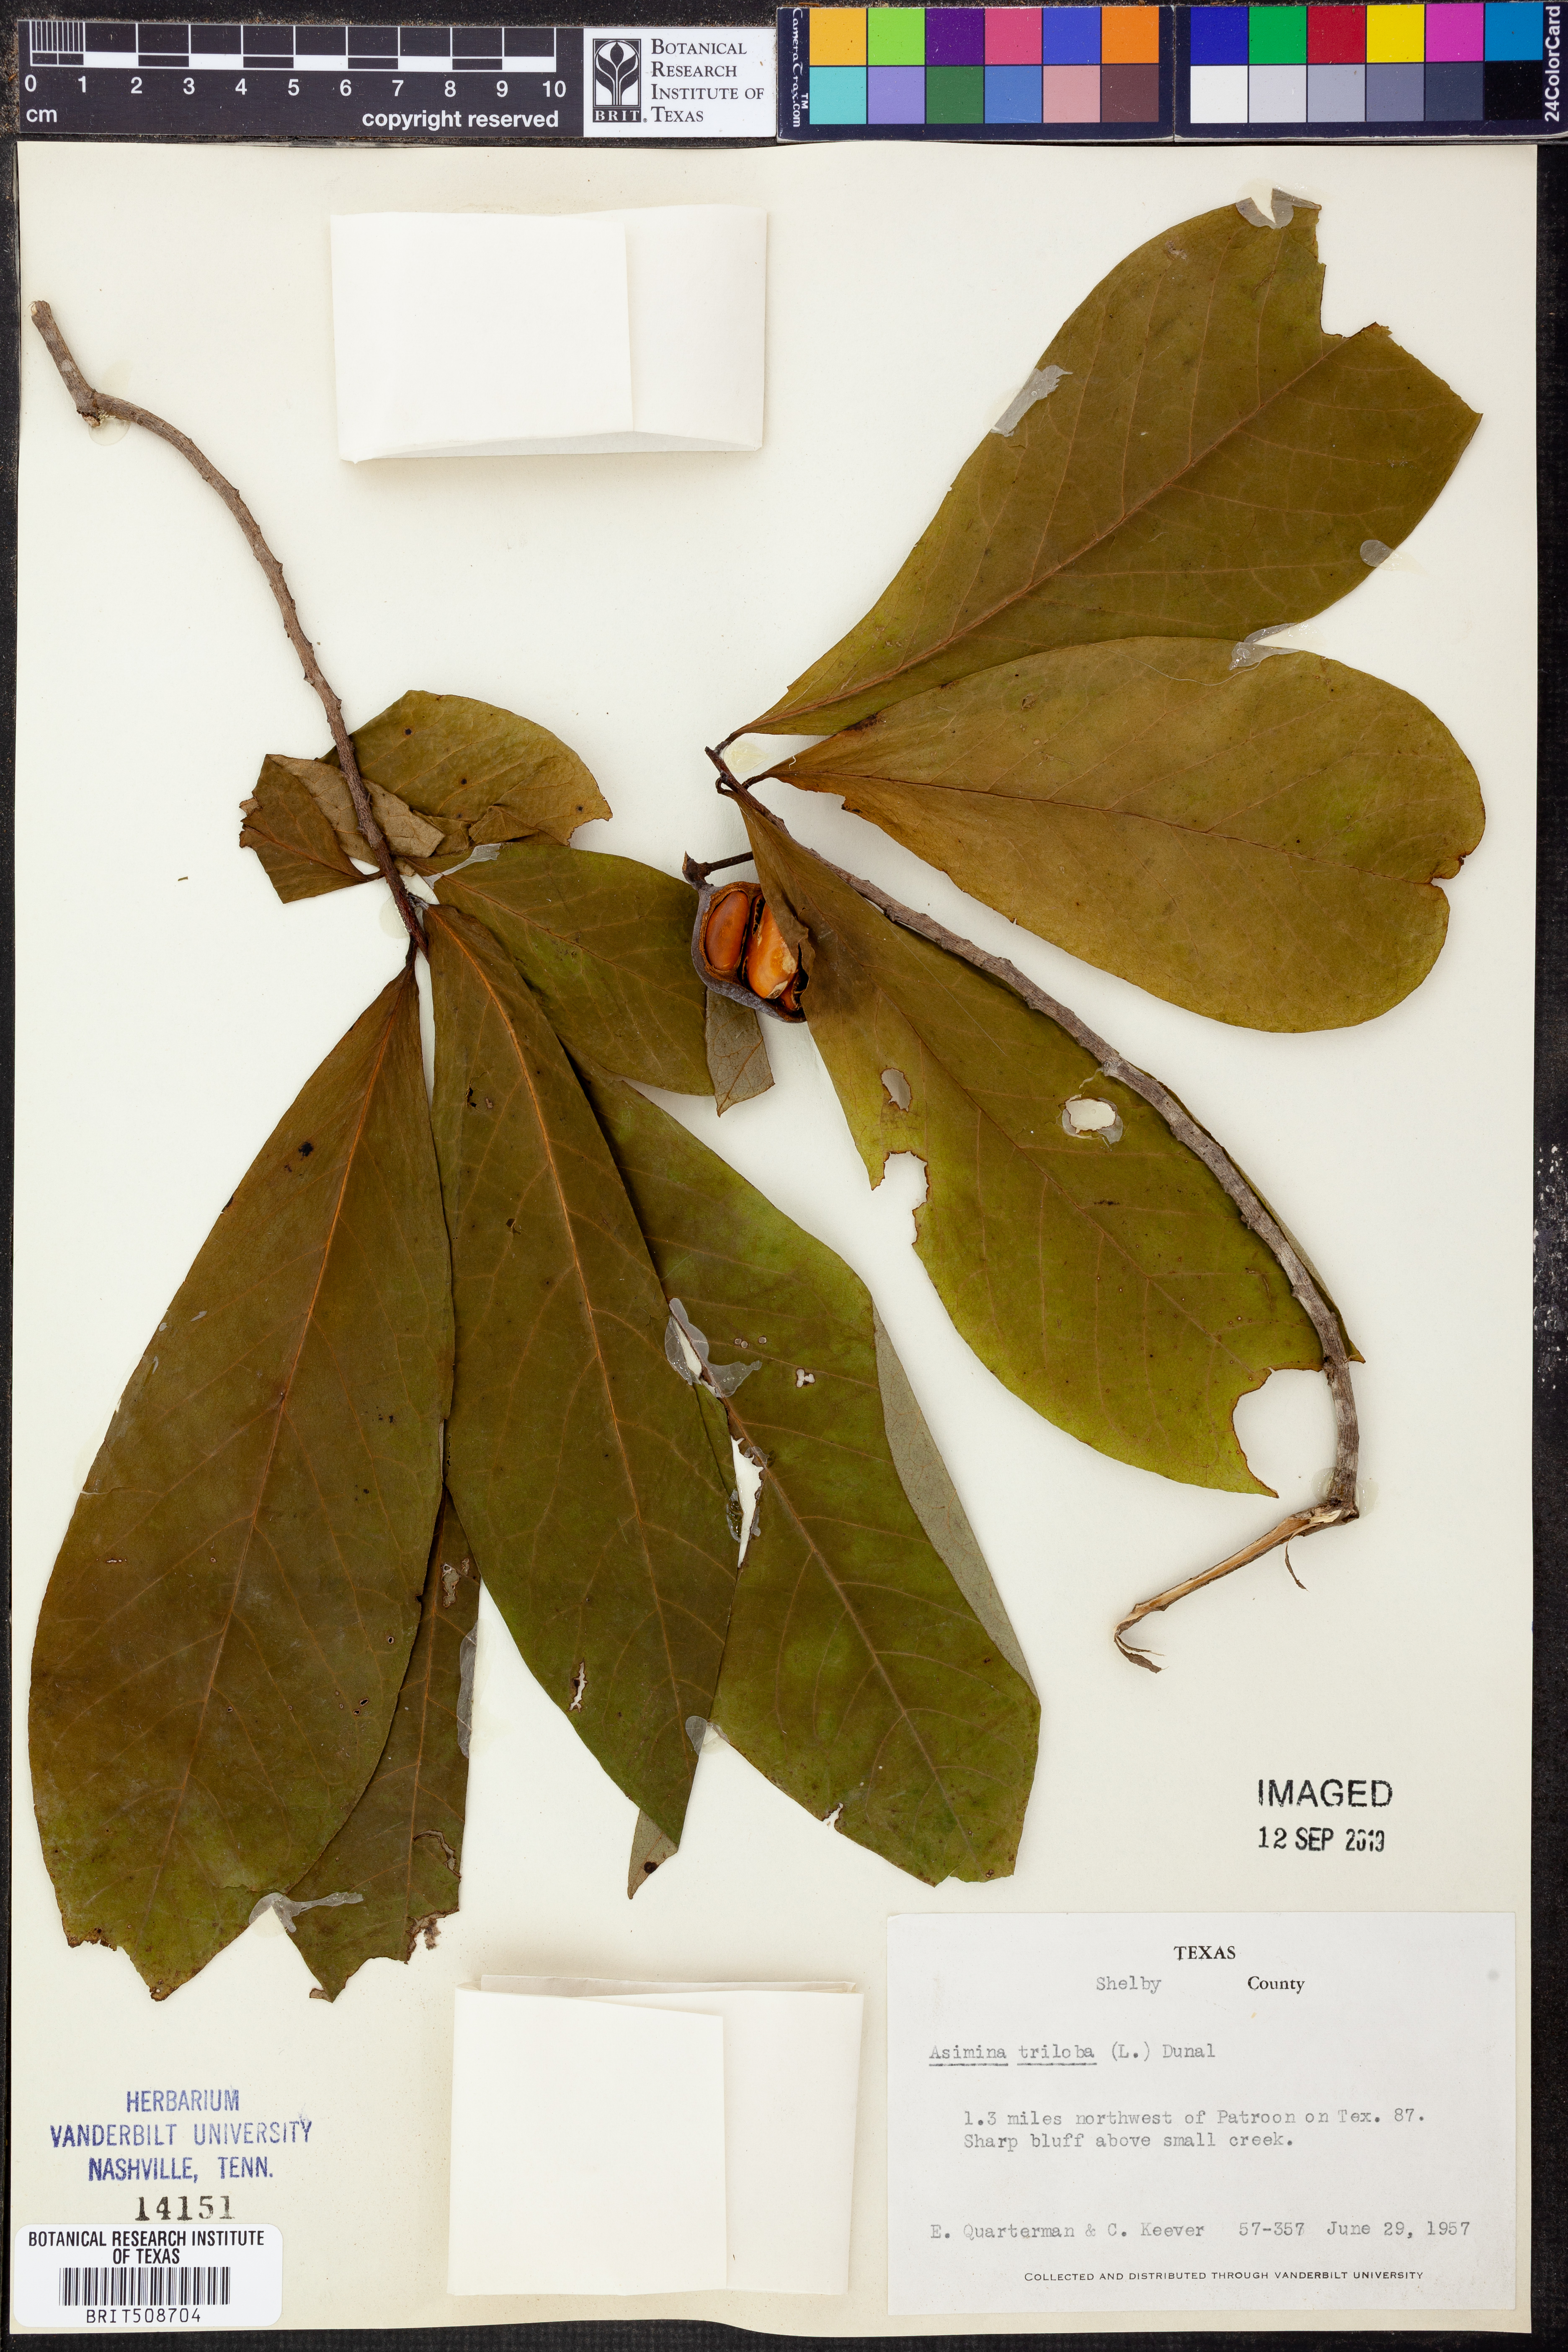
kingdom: Plantae
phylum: Tracheophyta
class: Magnoliopsida
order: Magnoliales
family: Annonaceae
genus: Asimina
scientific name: Asimina triloba
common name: Dog-banana
